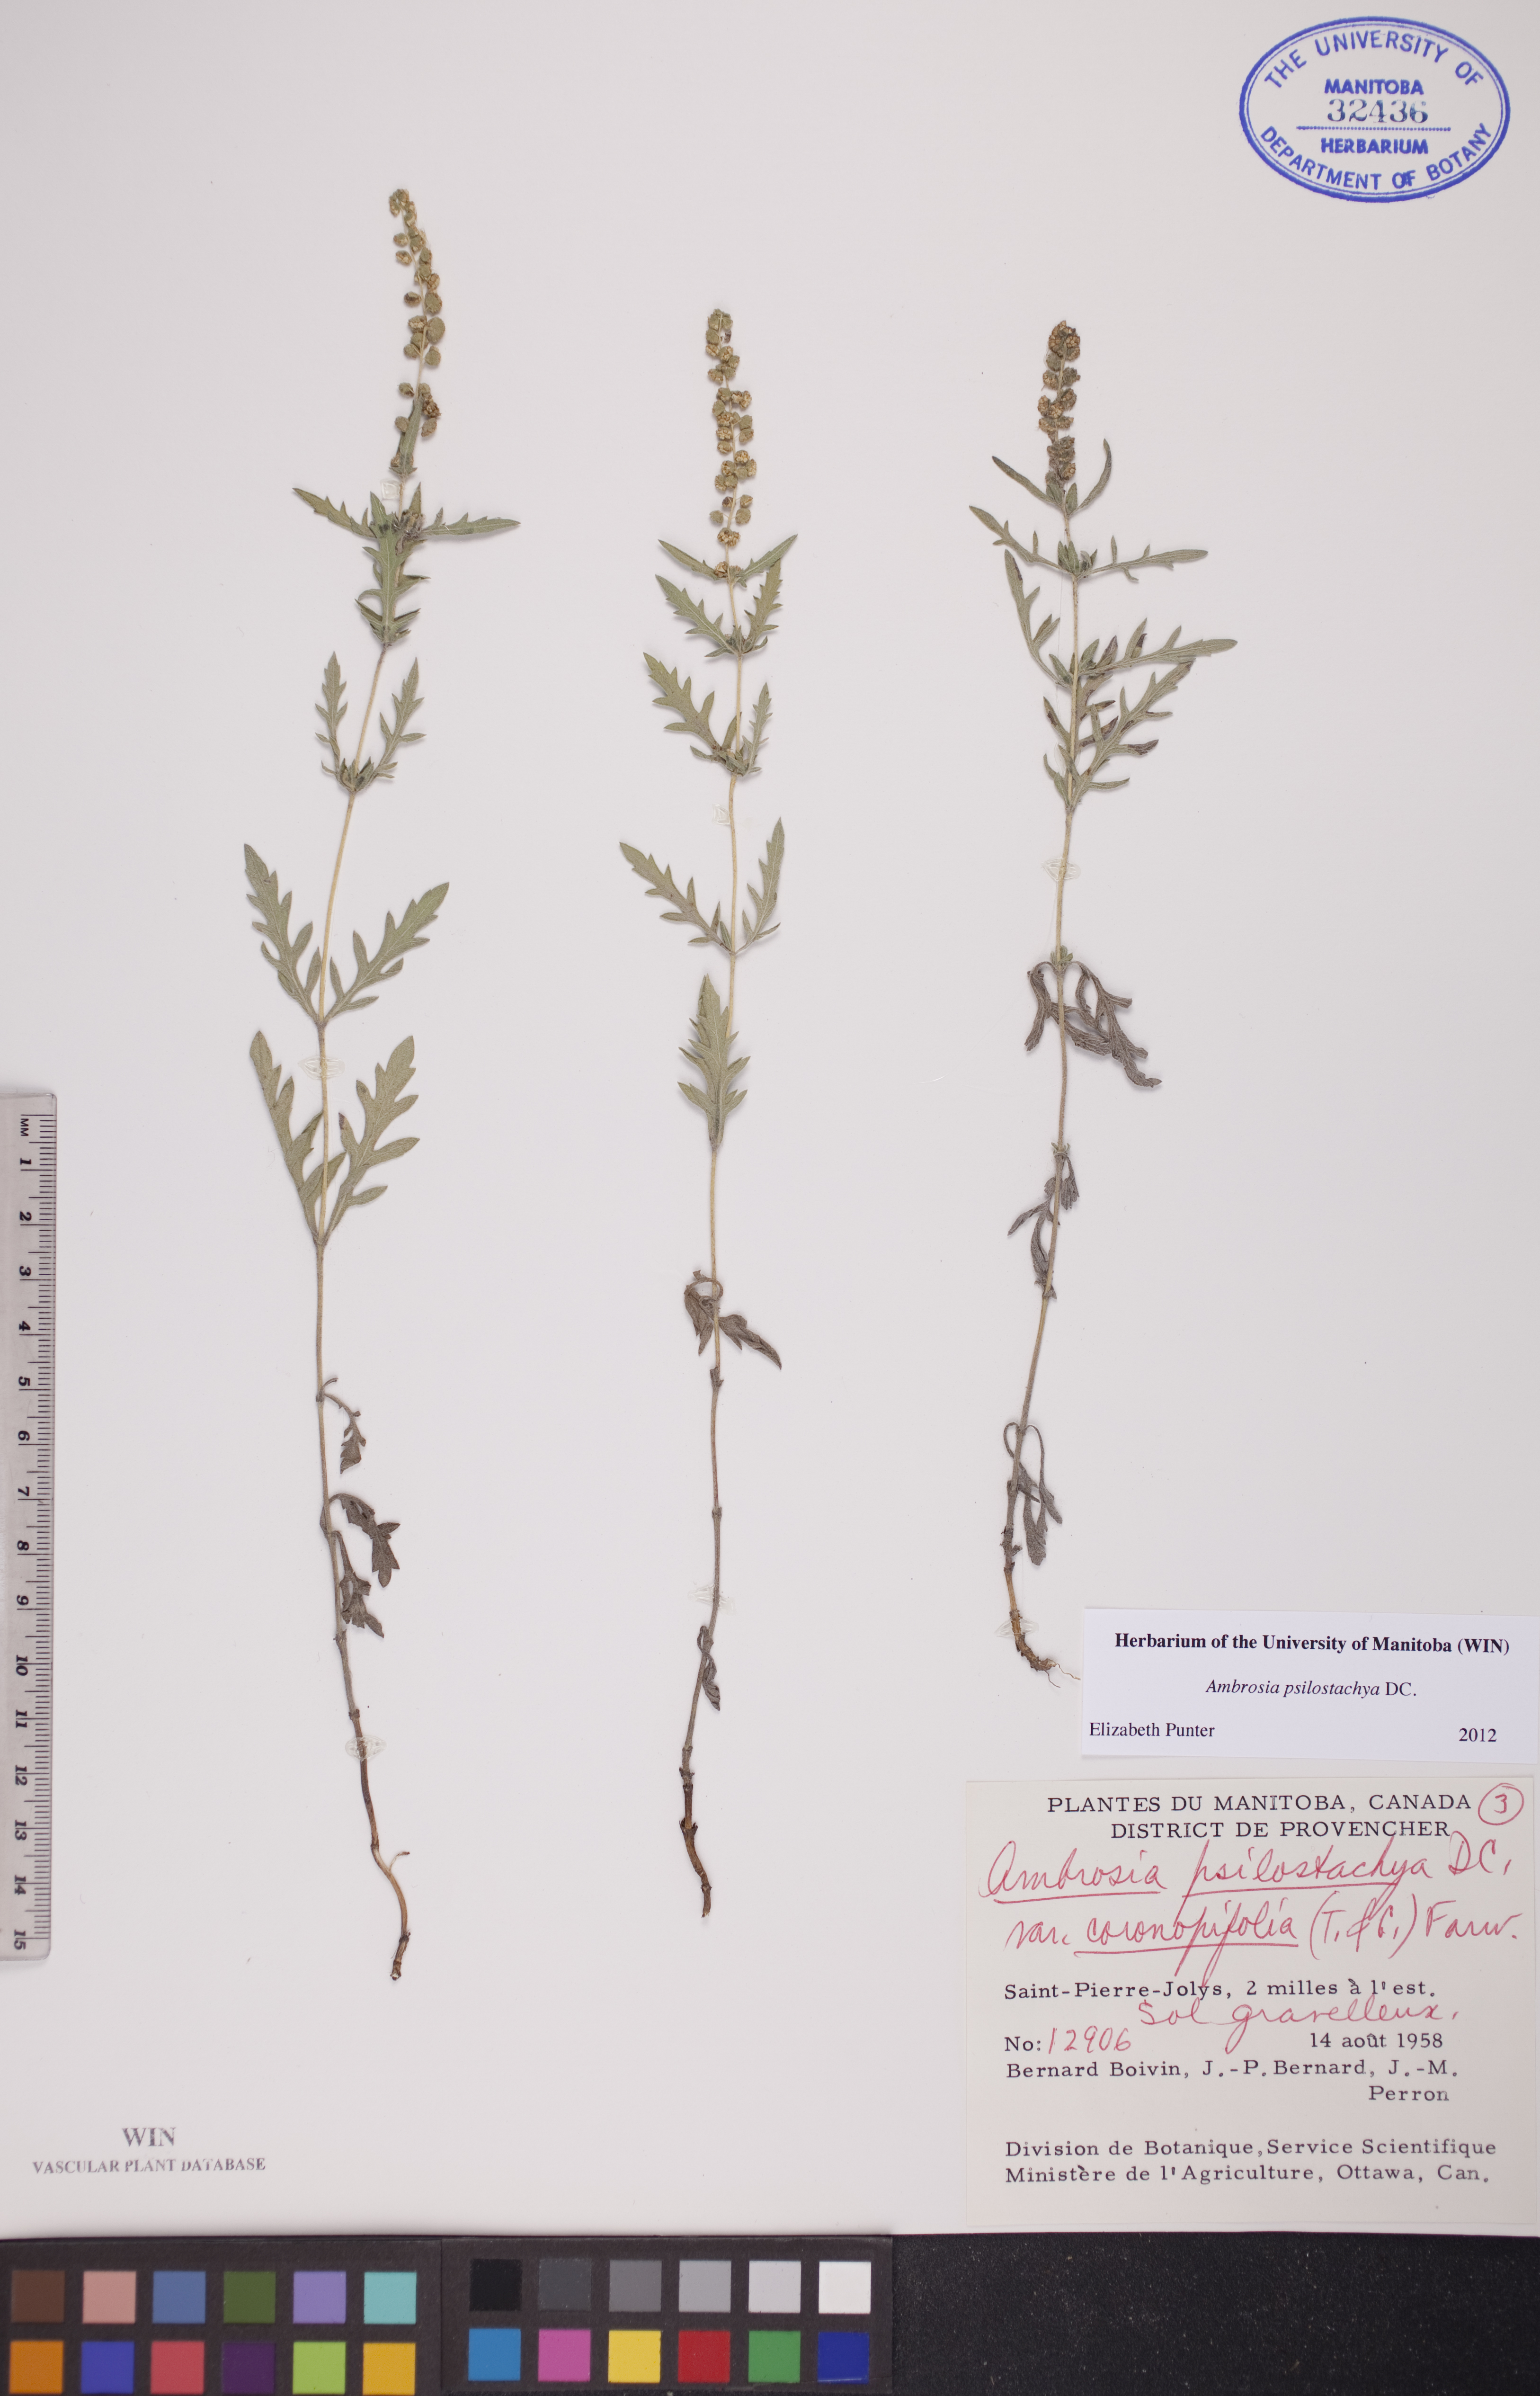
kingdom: Plantae
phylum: Tracheophyta
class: Magnoliopsida
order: Asterales
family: Asteraceae
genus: Ambrosia
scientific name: Ambrosia psilostachya
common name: Perennial ragweed
